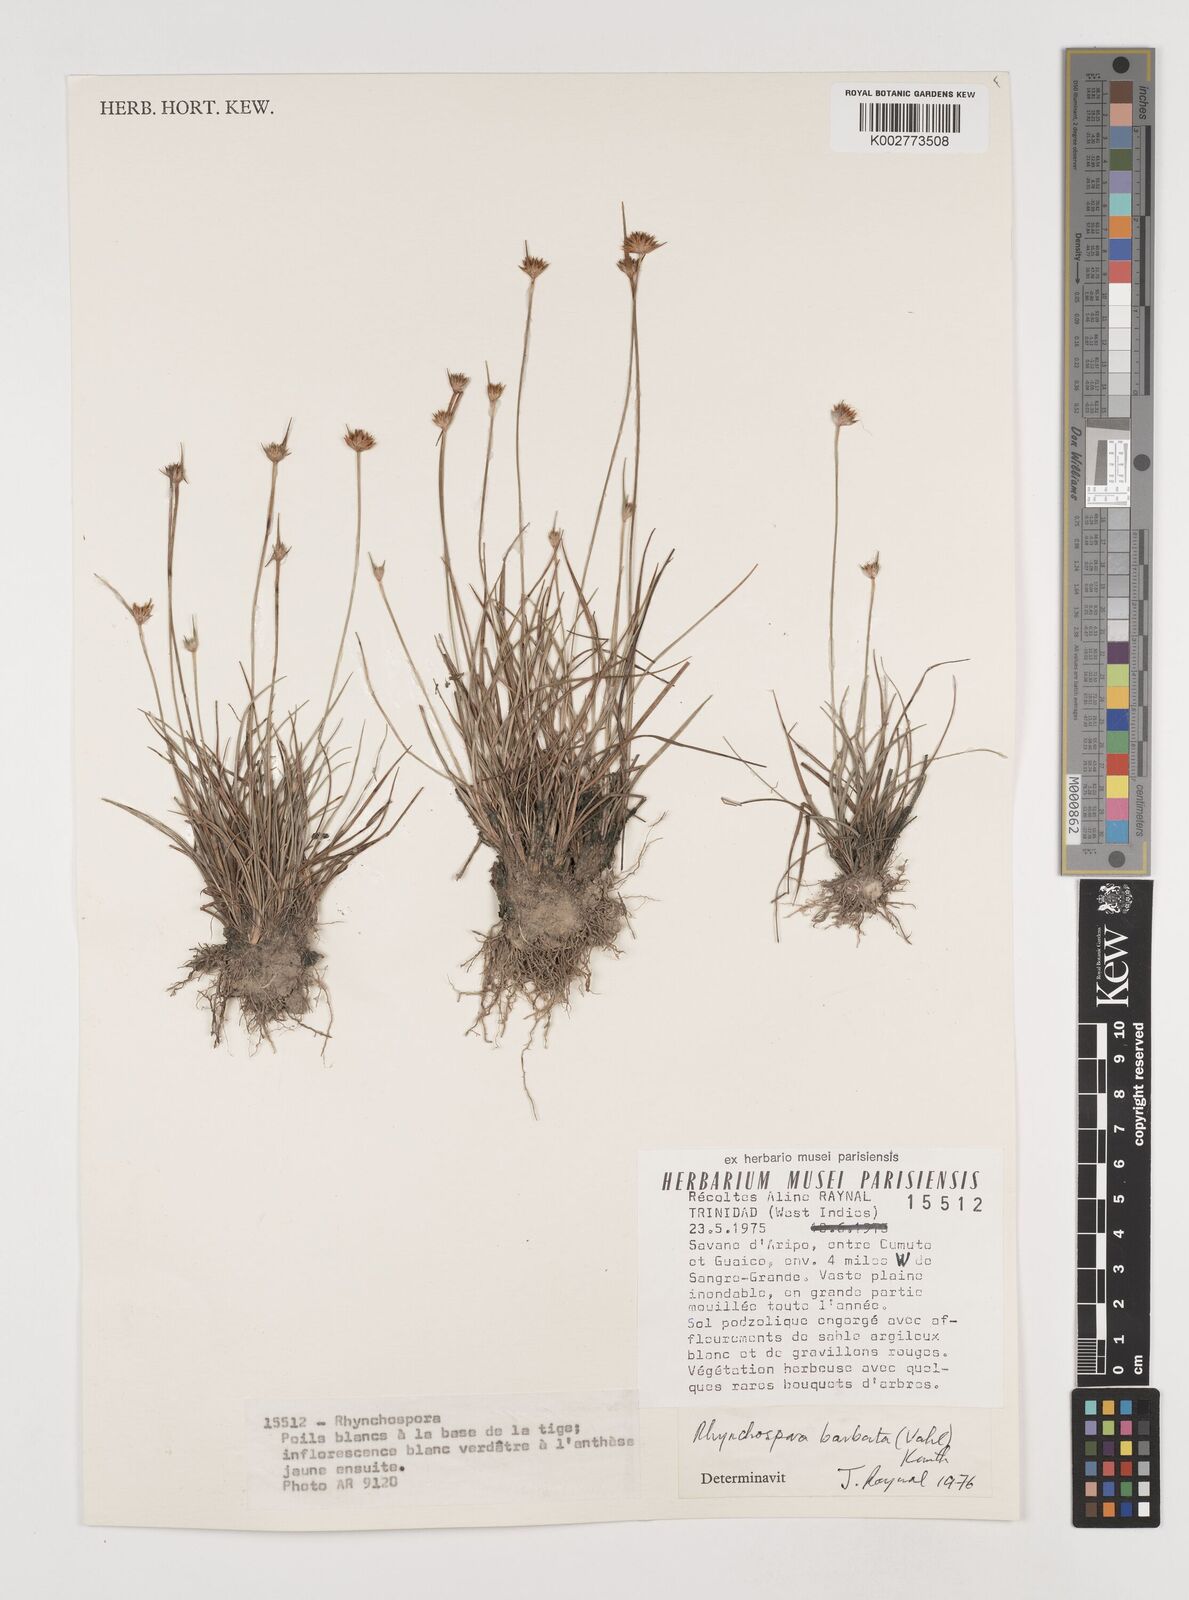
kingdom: Plantae
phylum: Tracheophyta
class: Liliopsida
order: Poales
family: Cyperaceae
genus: Rhynchospora
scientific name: Rhynchospora barbata
